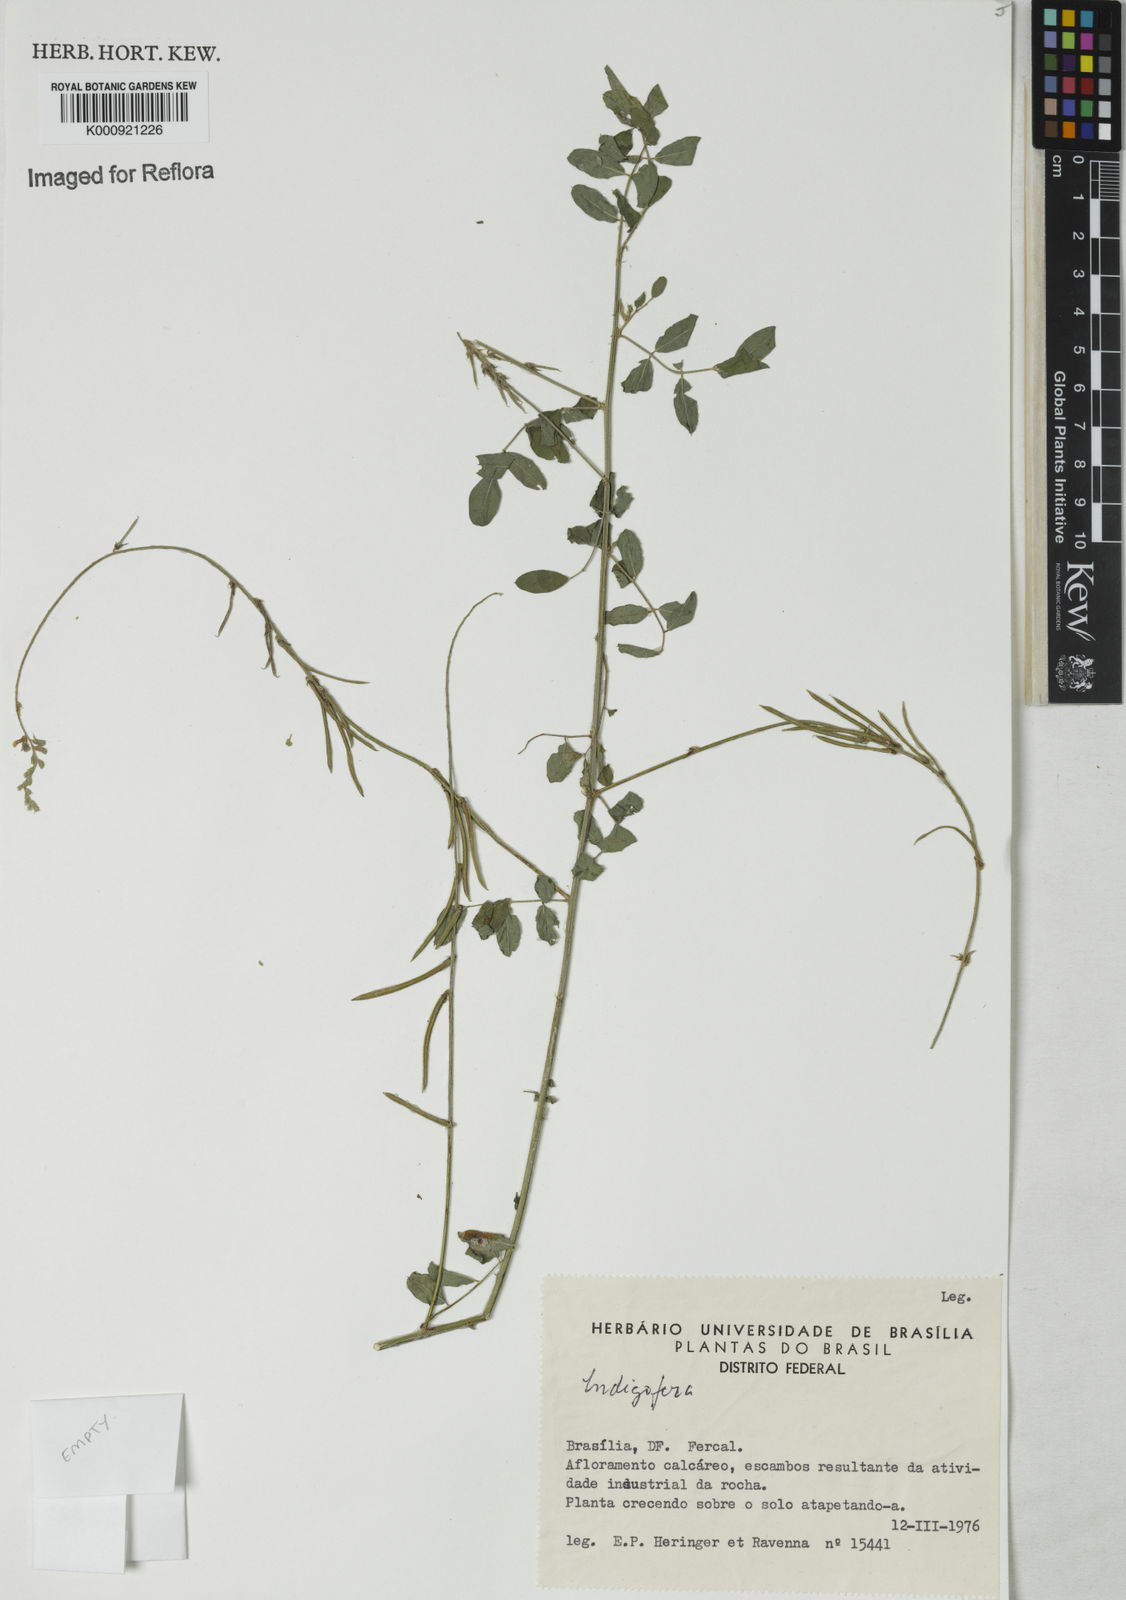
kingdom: Plantae
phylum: Tracheophyta
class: Magnoliopsida
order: Fabales
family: Fabaceae
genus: Indigofera
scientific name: Indigofera trita
